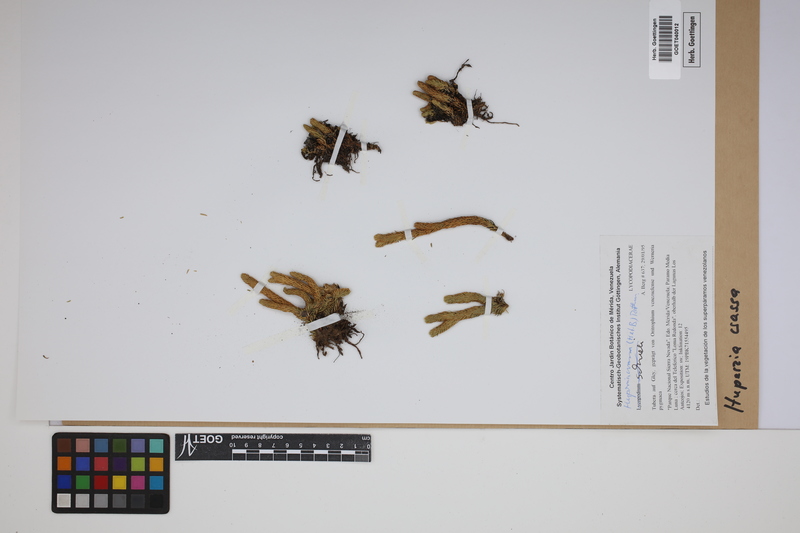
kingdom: Plantae
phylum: Tracheophyta
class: Lycopodiopsida
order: Lycopodiales
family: Lycopodiaceae
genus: Phlegmariurus
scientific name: Phlegmariurus crassus
